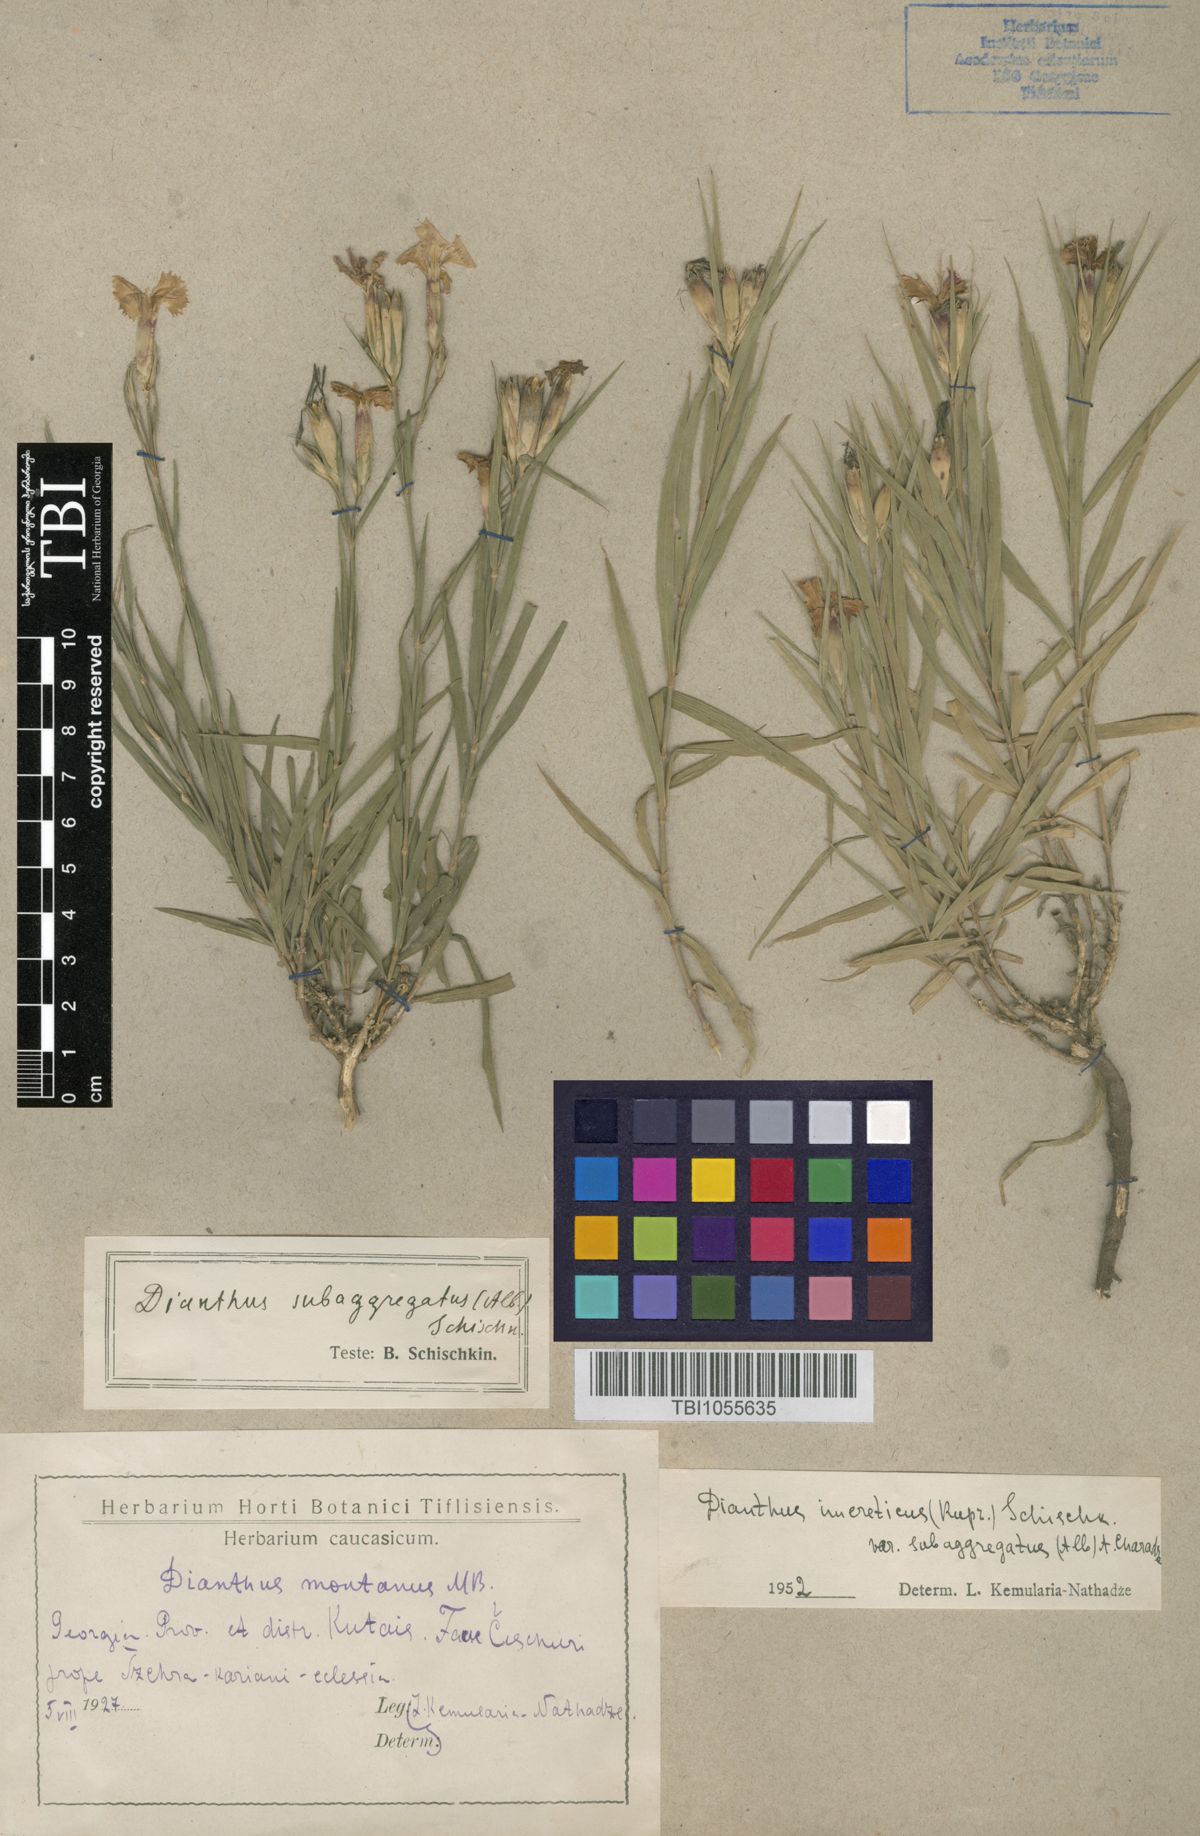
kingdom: Plantae
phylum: Tracheophyta
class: Magnoliopsida
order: Caryophyllales
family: Caryophyllaceae
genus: Dianthus
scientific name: Dianthus imereticus
